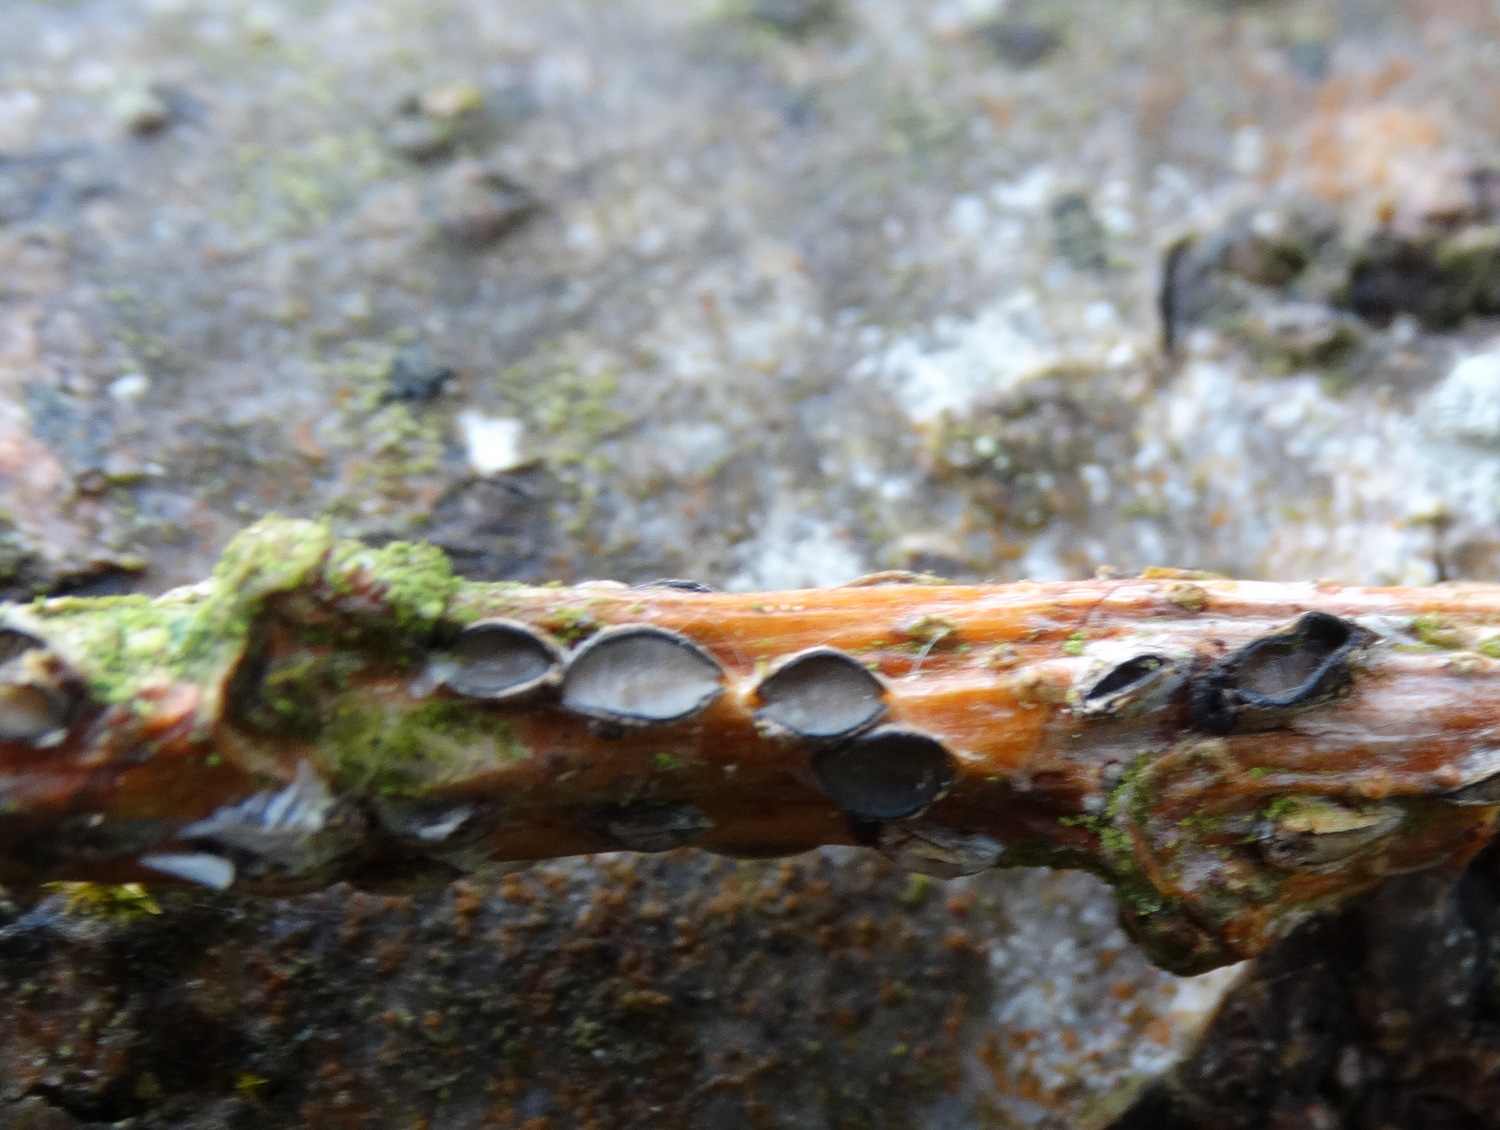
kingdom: Fungi
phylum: Ascomycota
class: Leotiomycetes
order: Rhytismatales
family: Rhytismataceae
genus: Colpoma
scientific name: Colpoma quercinum
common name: ege-sprækkeskive
